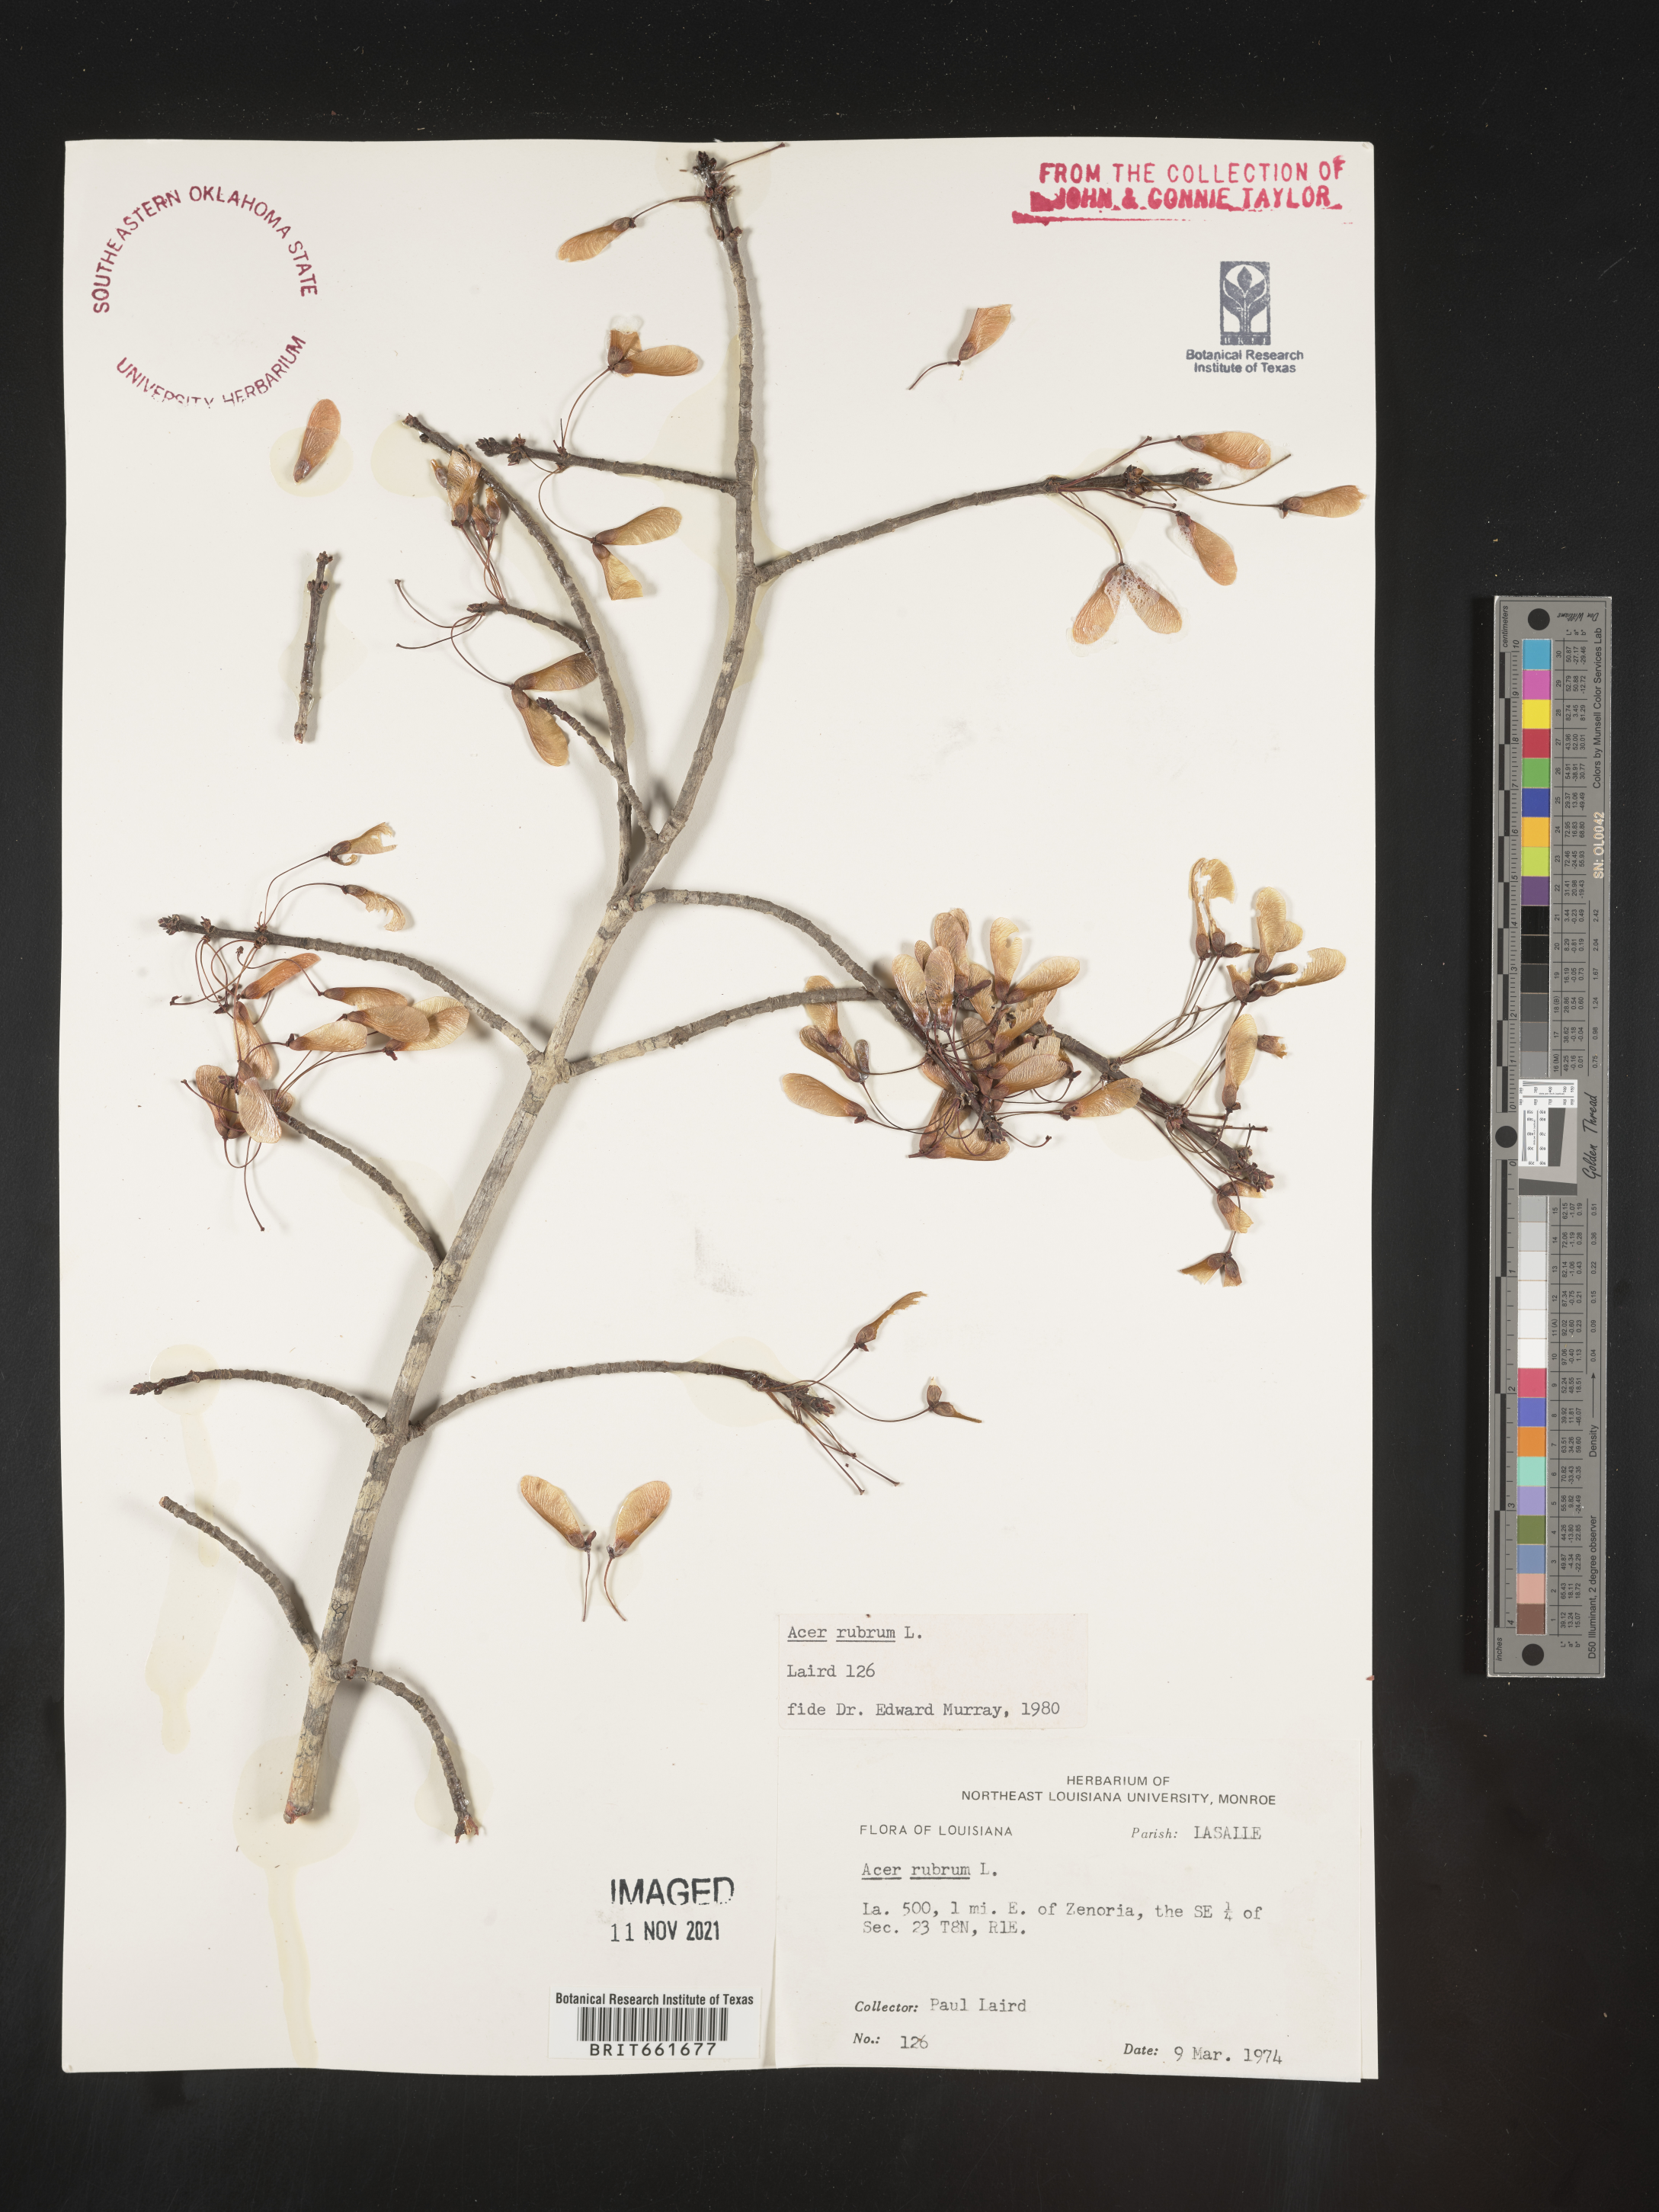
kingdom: Plantae
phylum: Tracheophyta
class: Magnoliopsida
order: Sapindales
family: Sapindaceae
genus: Acer
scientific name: Acer rubrum
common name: Red maple
